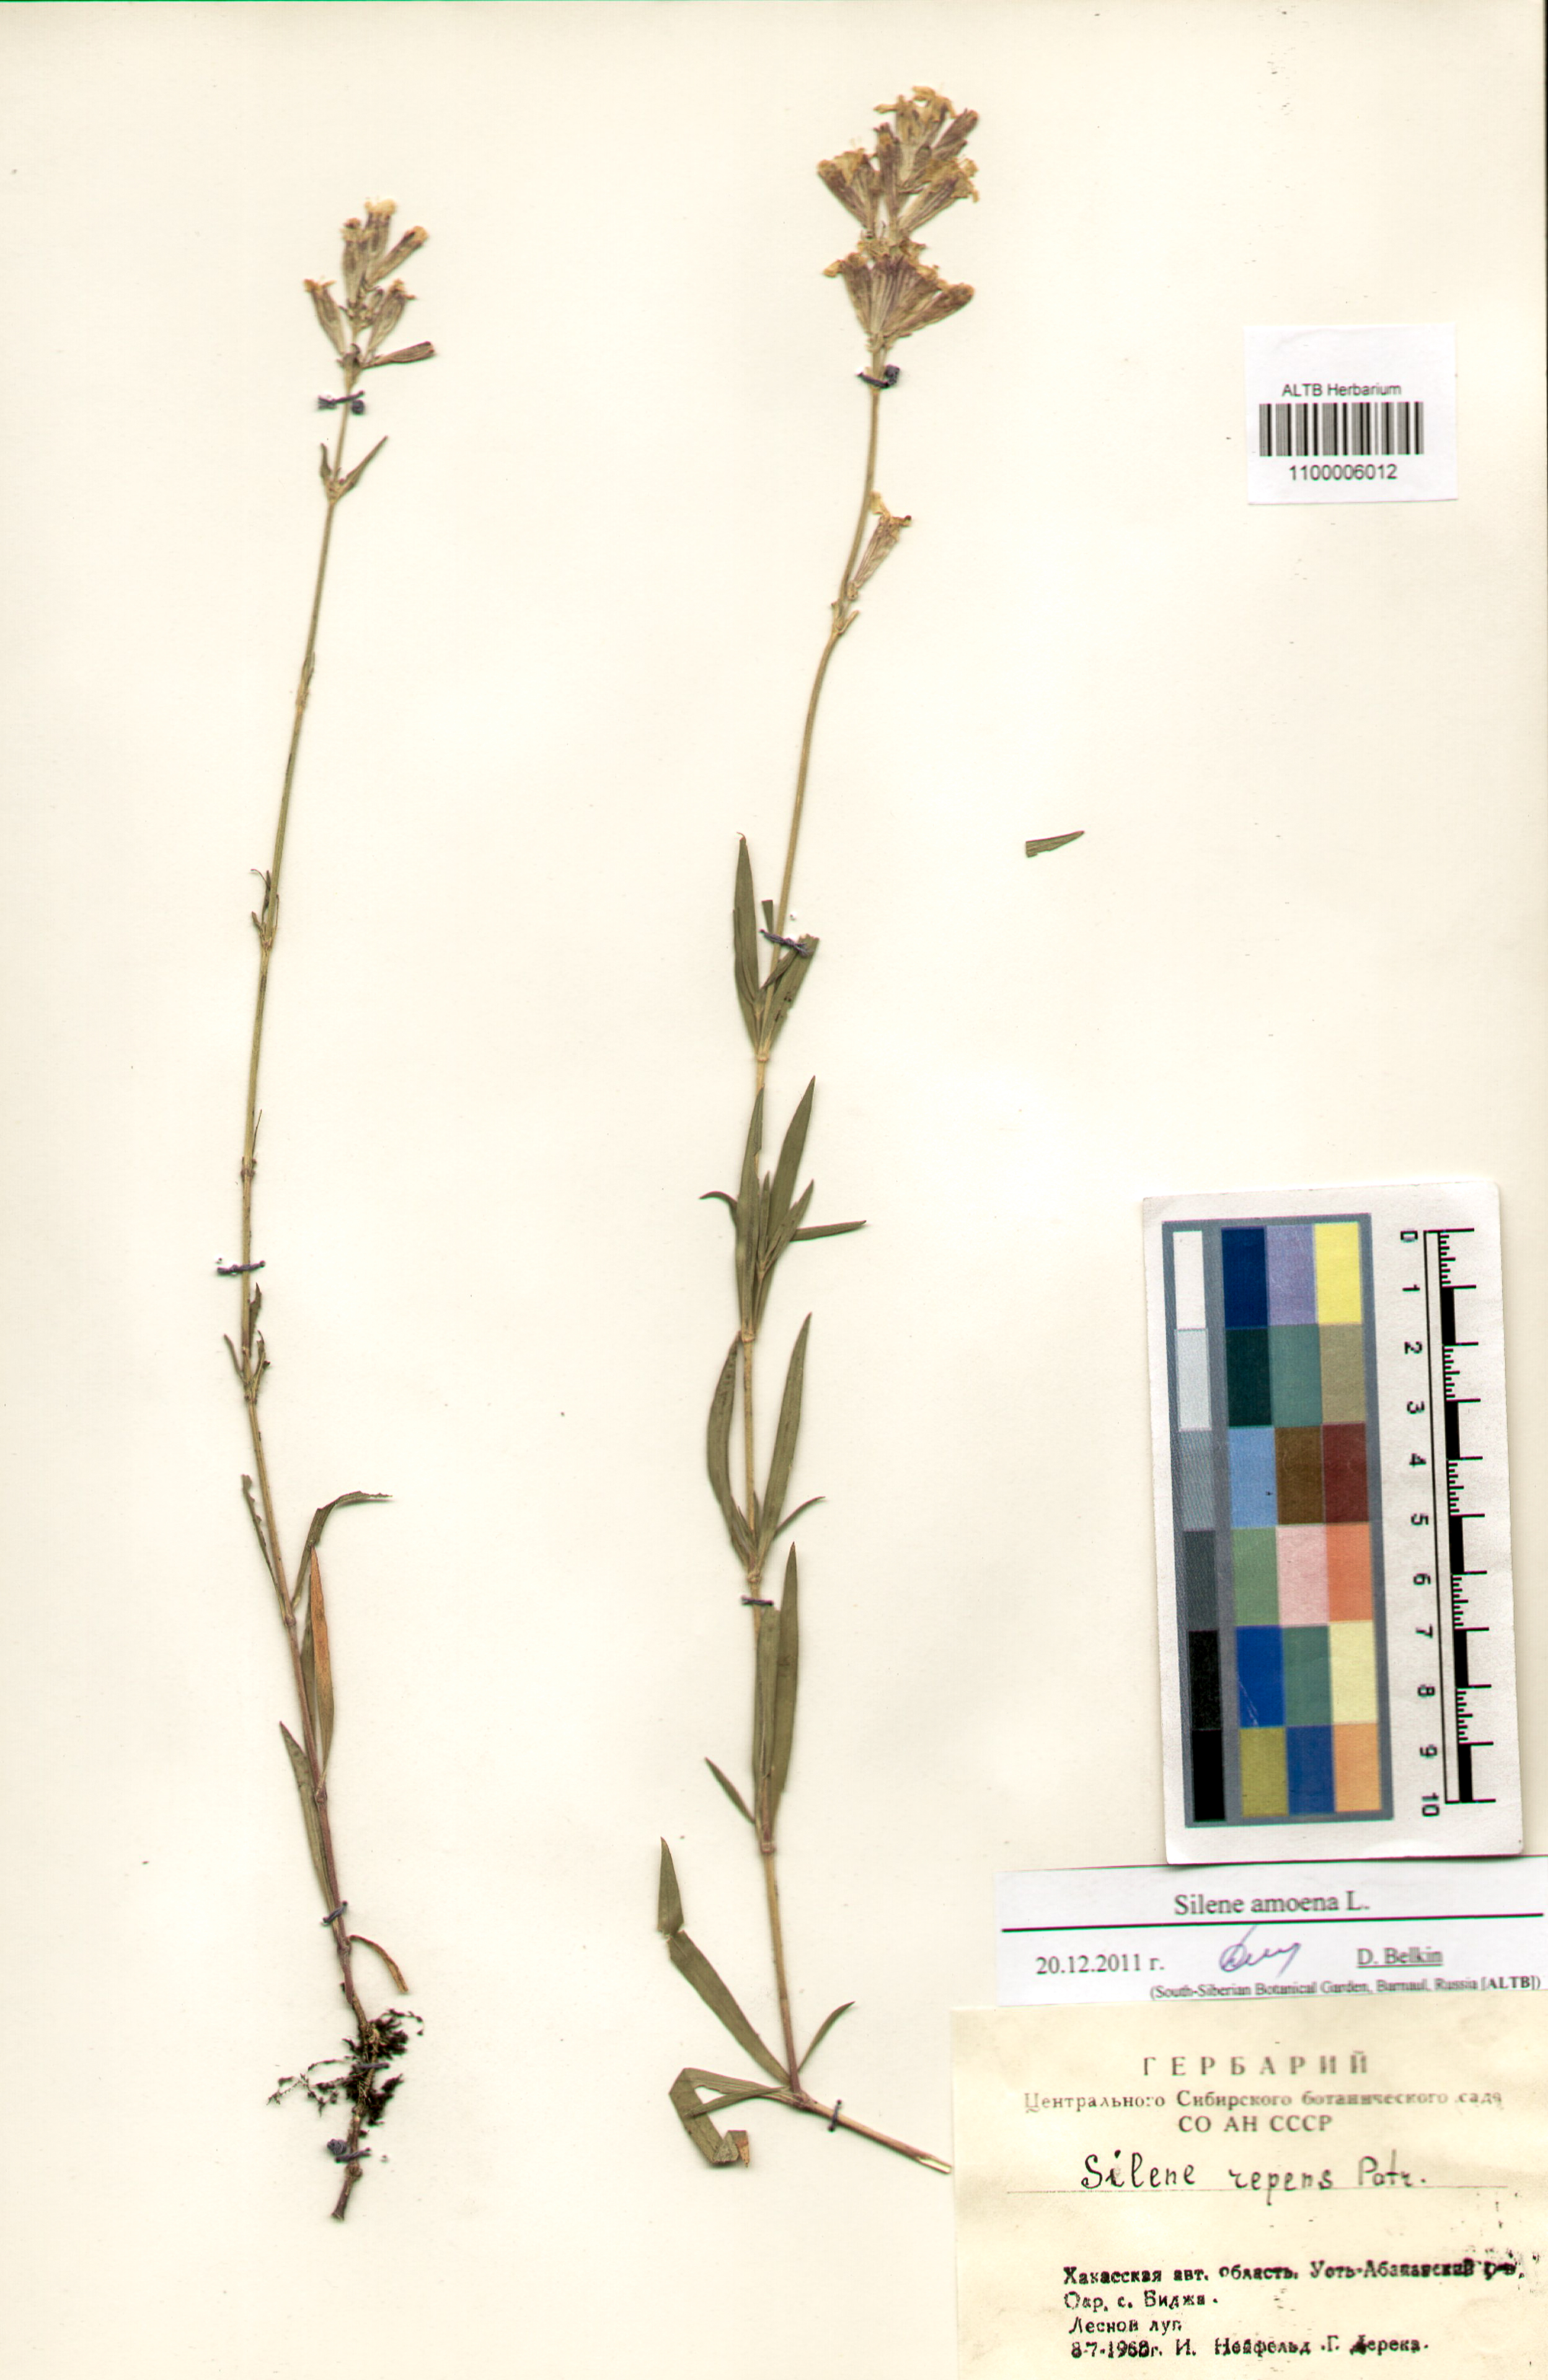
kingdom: Plantae
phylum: Tracheophyta
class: Magnoliopsida
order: Caryophyllales
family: Caryophyllaceae
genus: Silene
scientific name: Silene amoena
